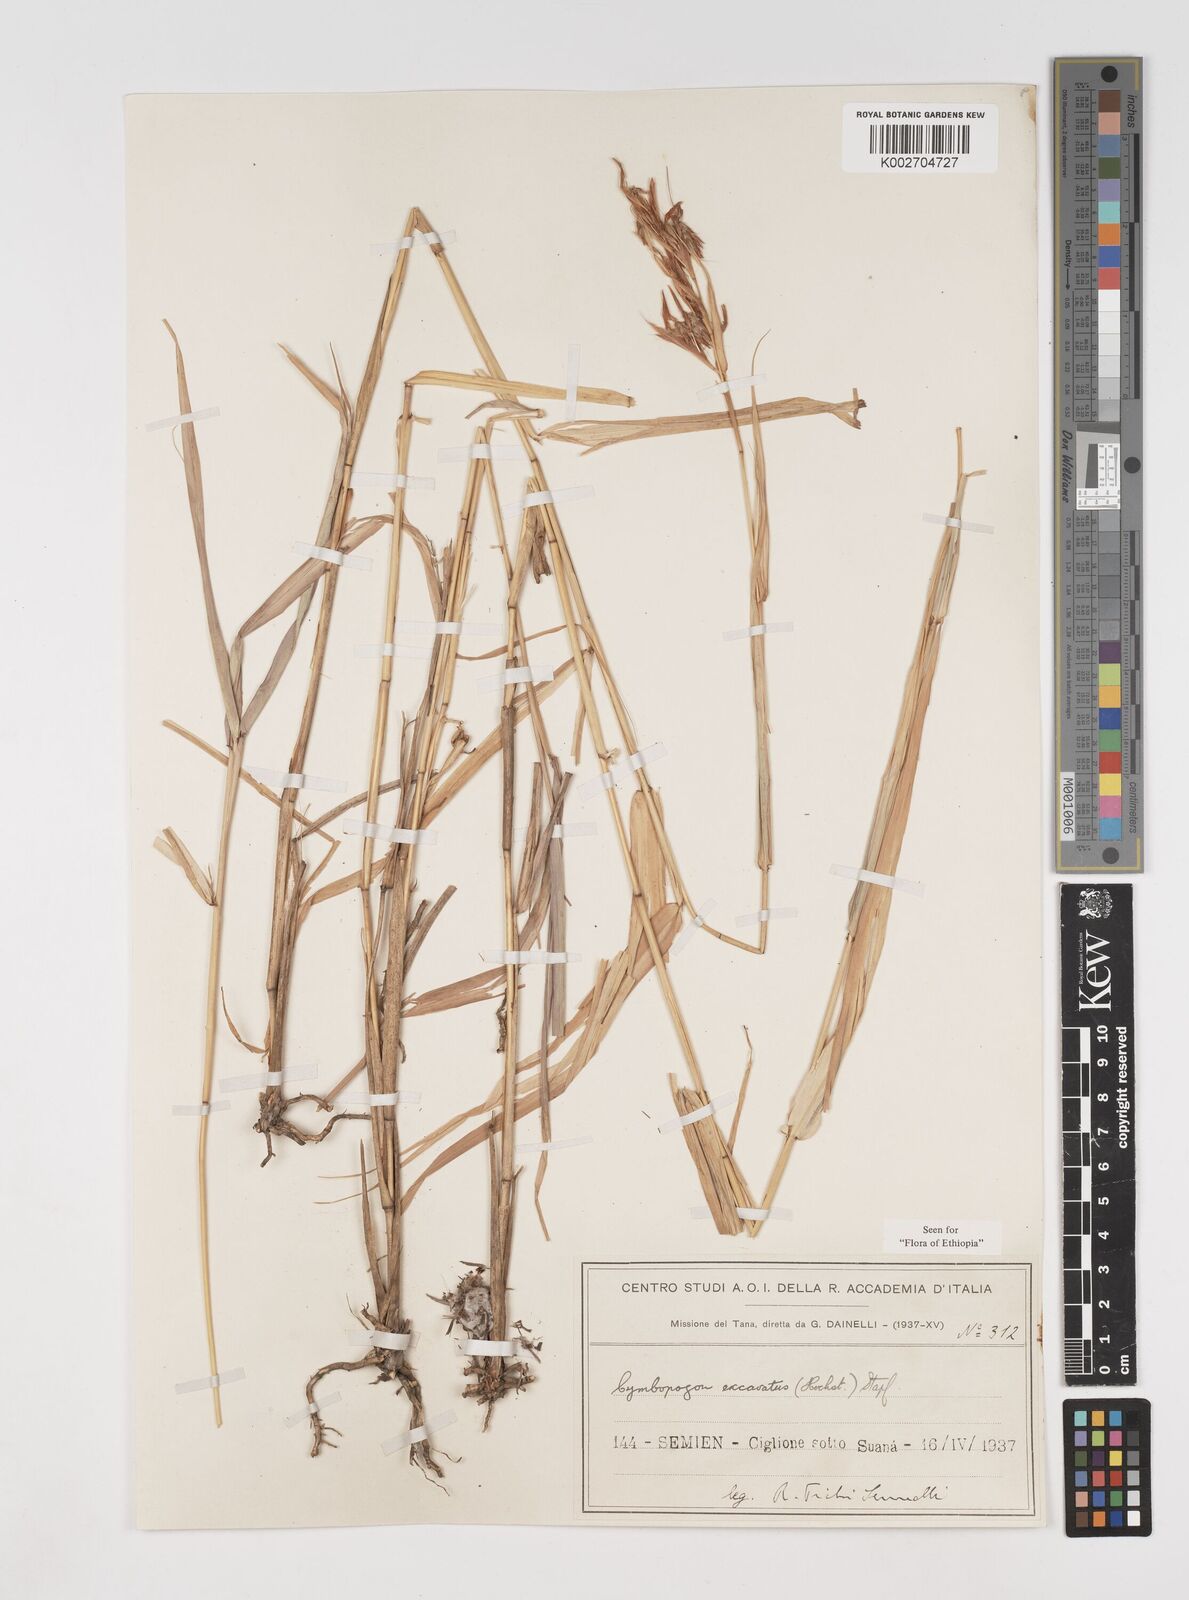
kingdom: Plantae
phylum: Tracheophyta
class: Liliopsida
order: Poales
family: Poaceae
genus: Cymbopogon
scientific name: Cymbopogon caesius
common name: Kachi grass
